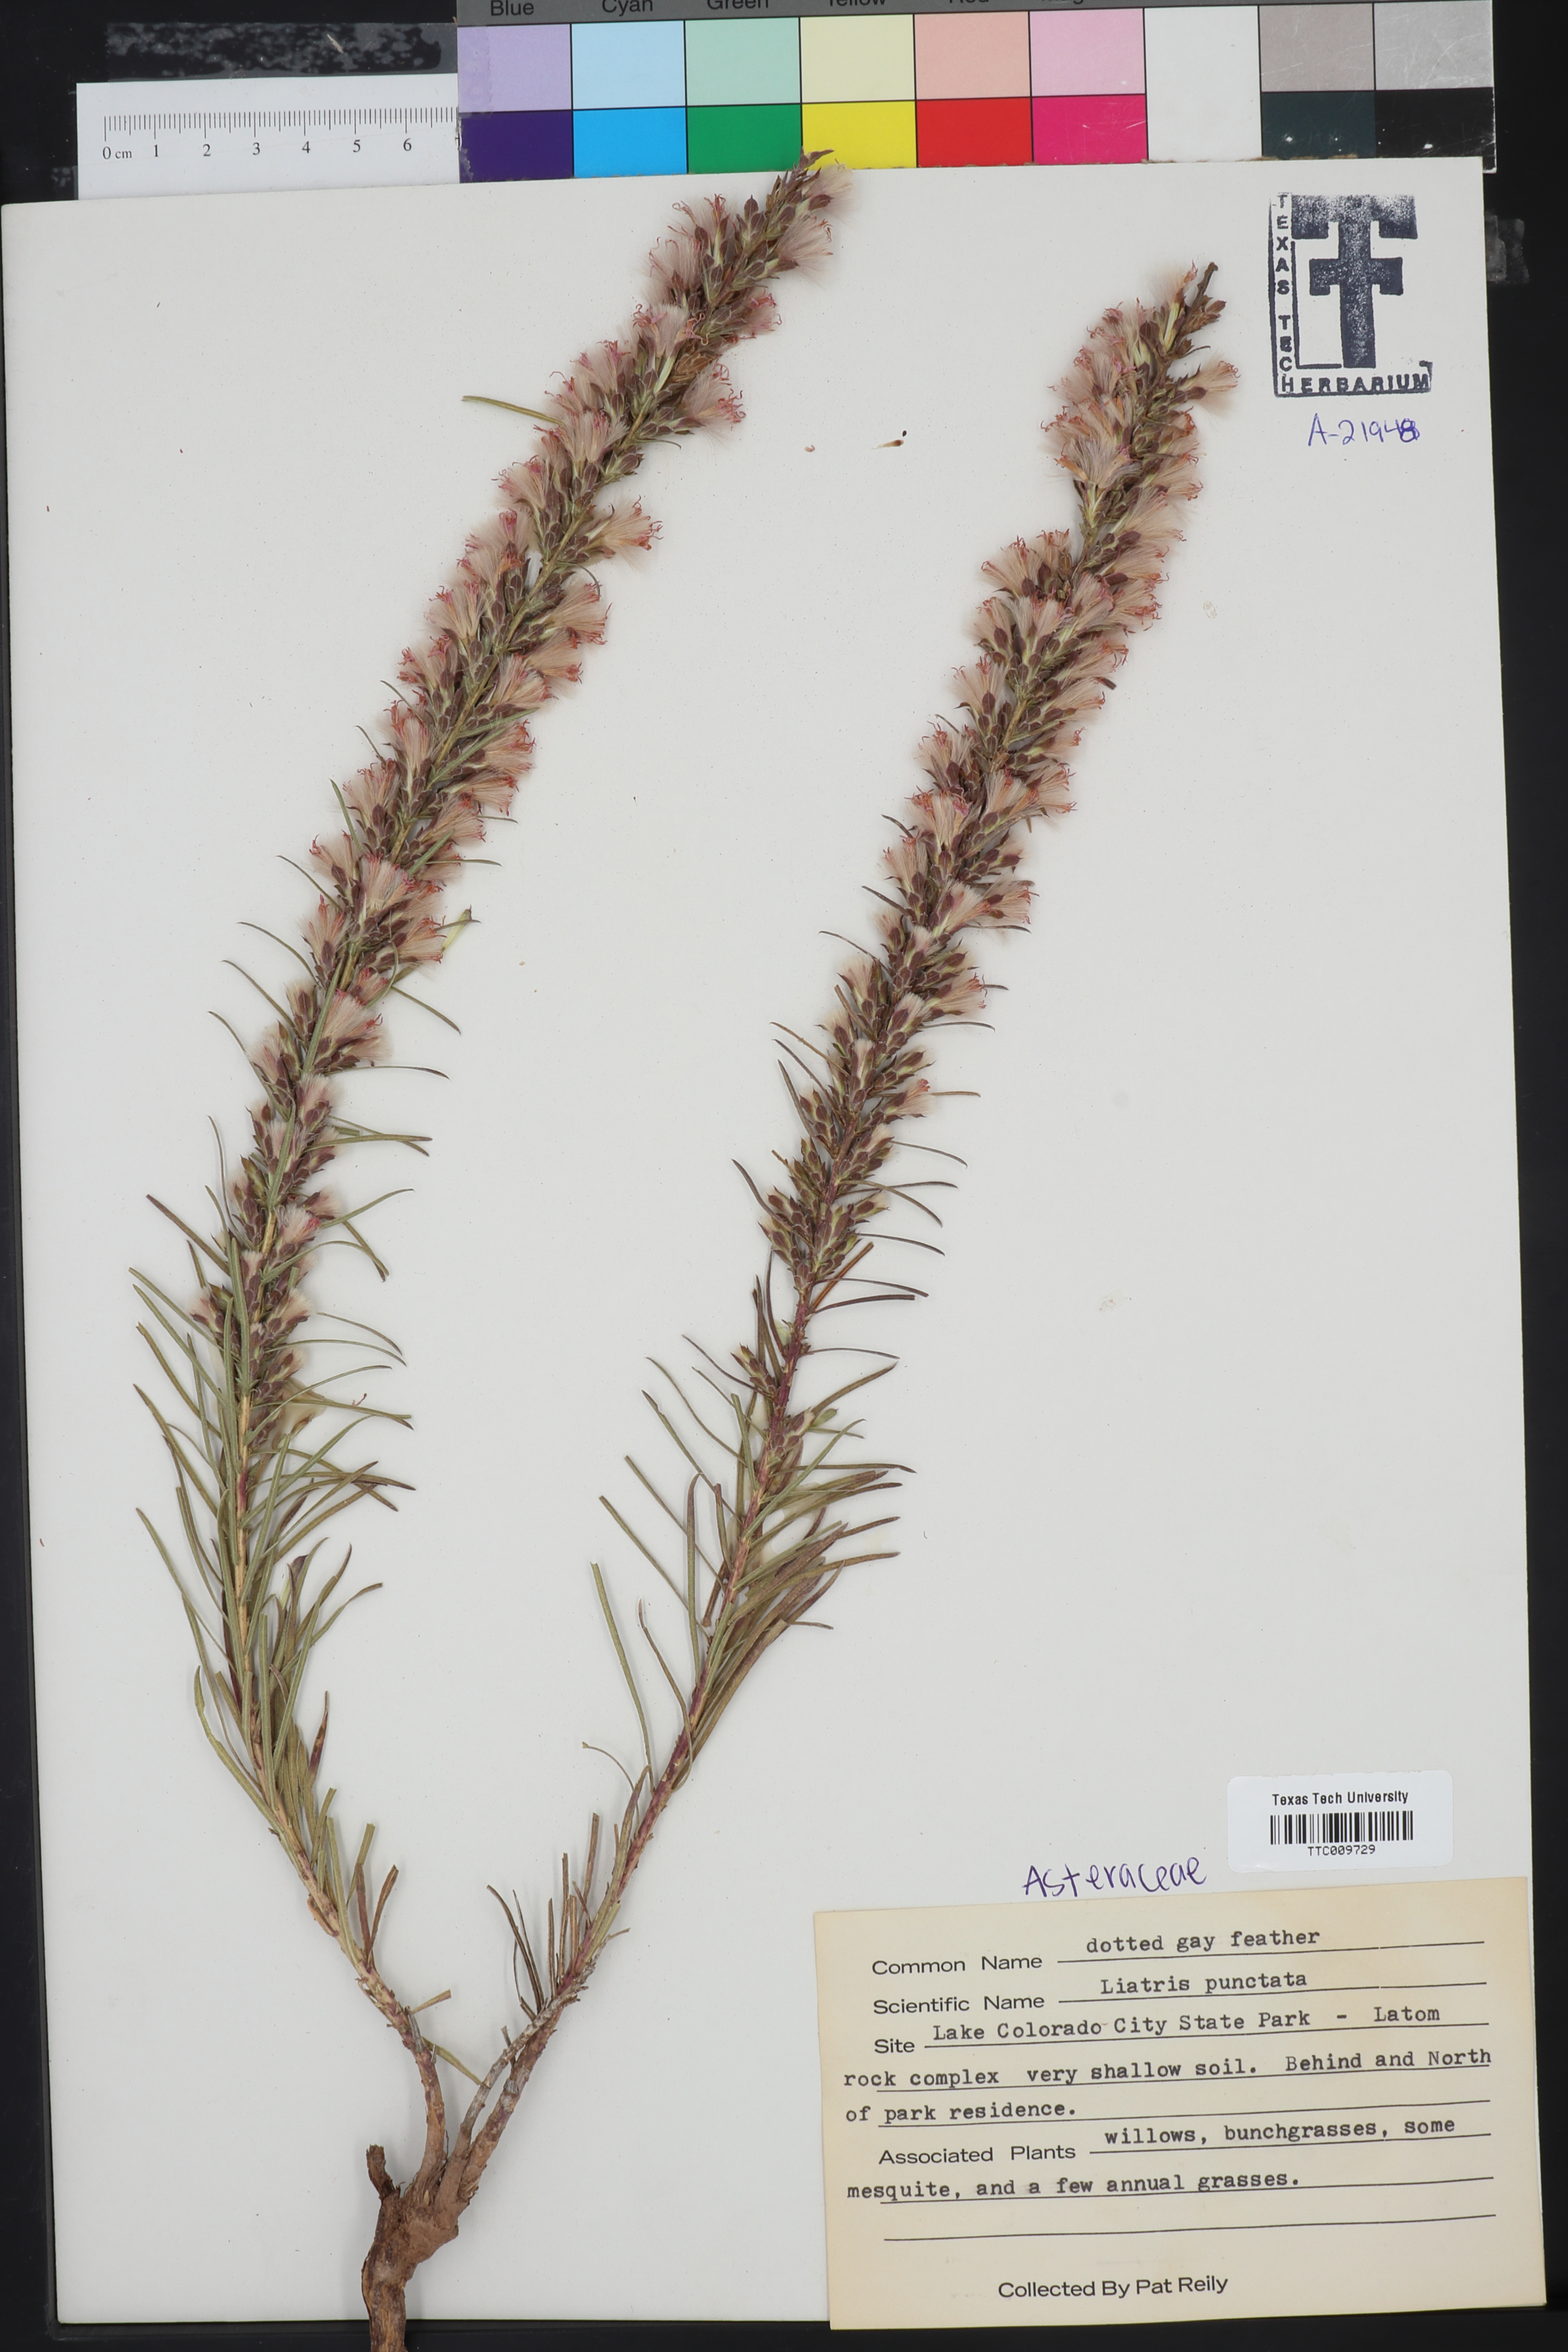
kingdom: Plantae
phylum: Tracheophyta
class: Magnoliopsida
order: Asterales
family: Asteraceae
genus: Liatris
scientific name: Liatris punctata
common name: Dotted gayfeather
